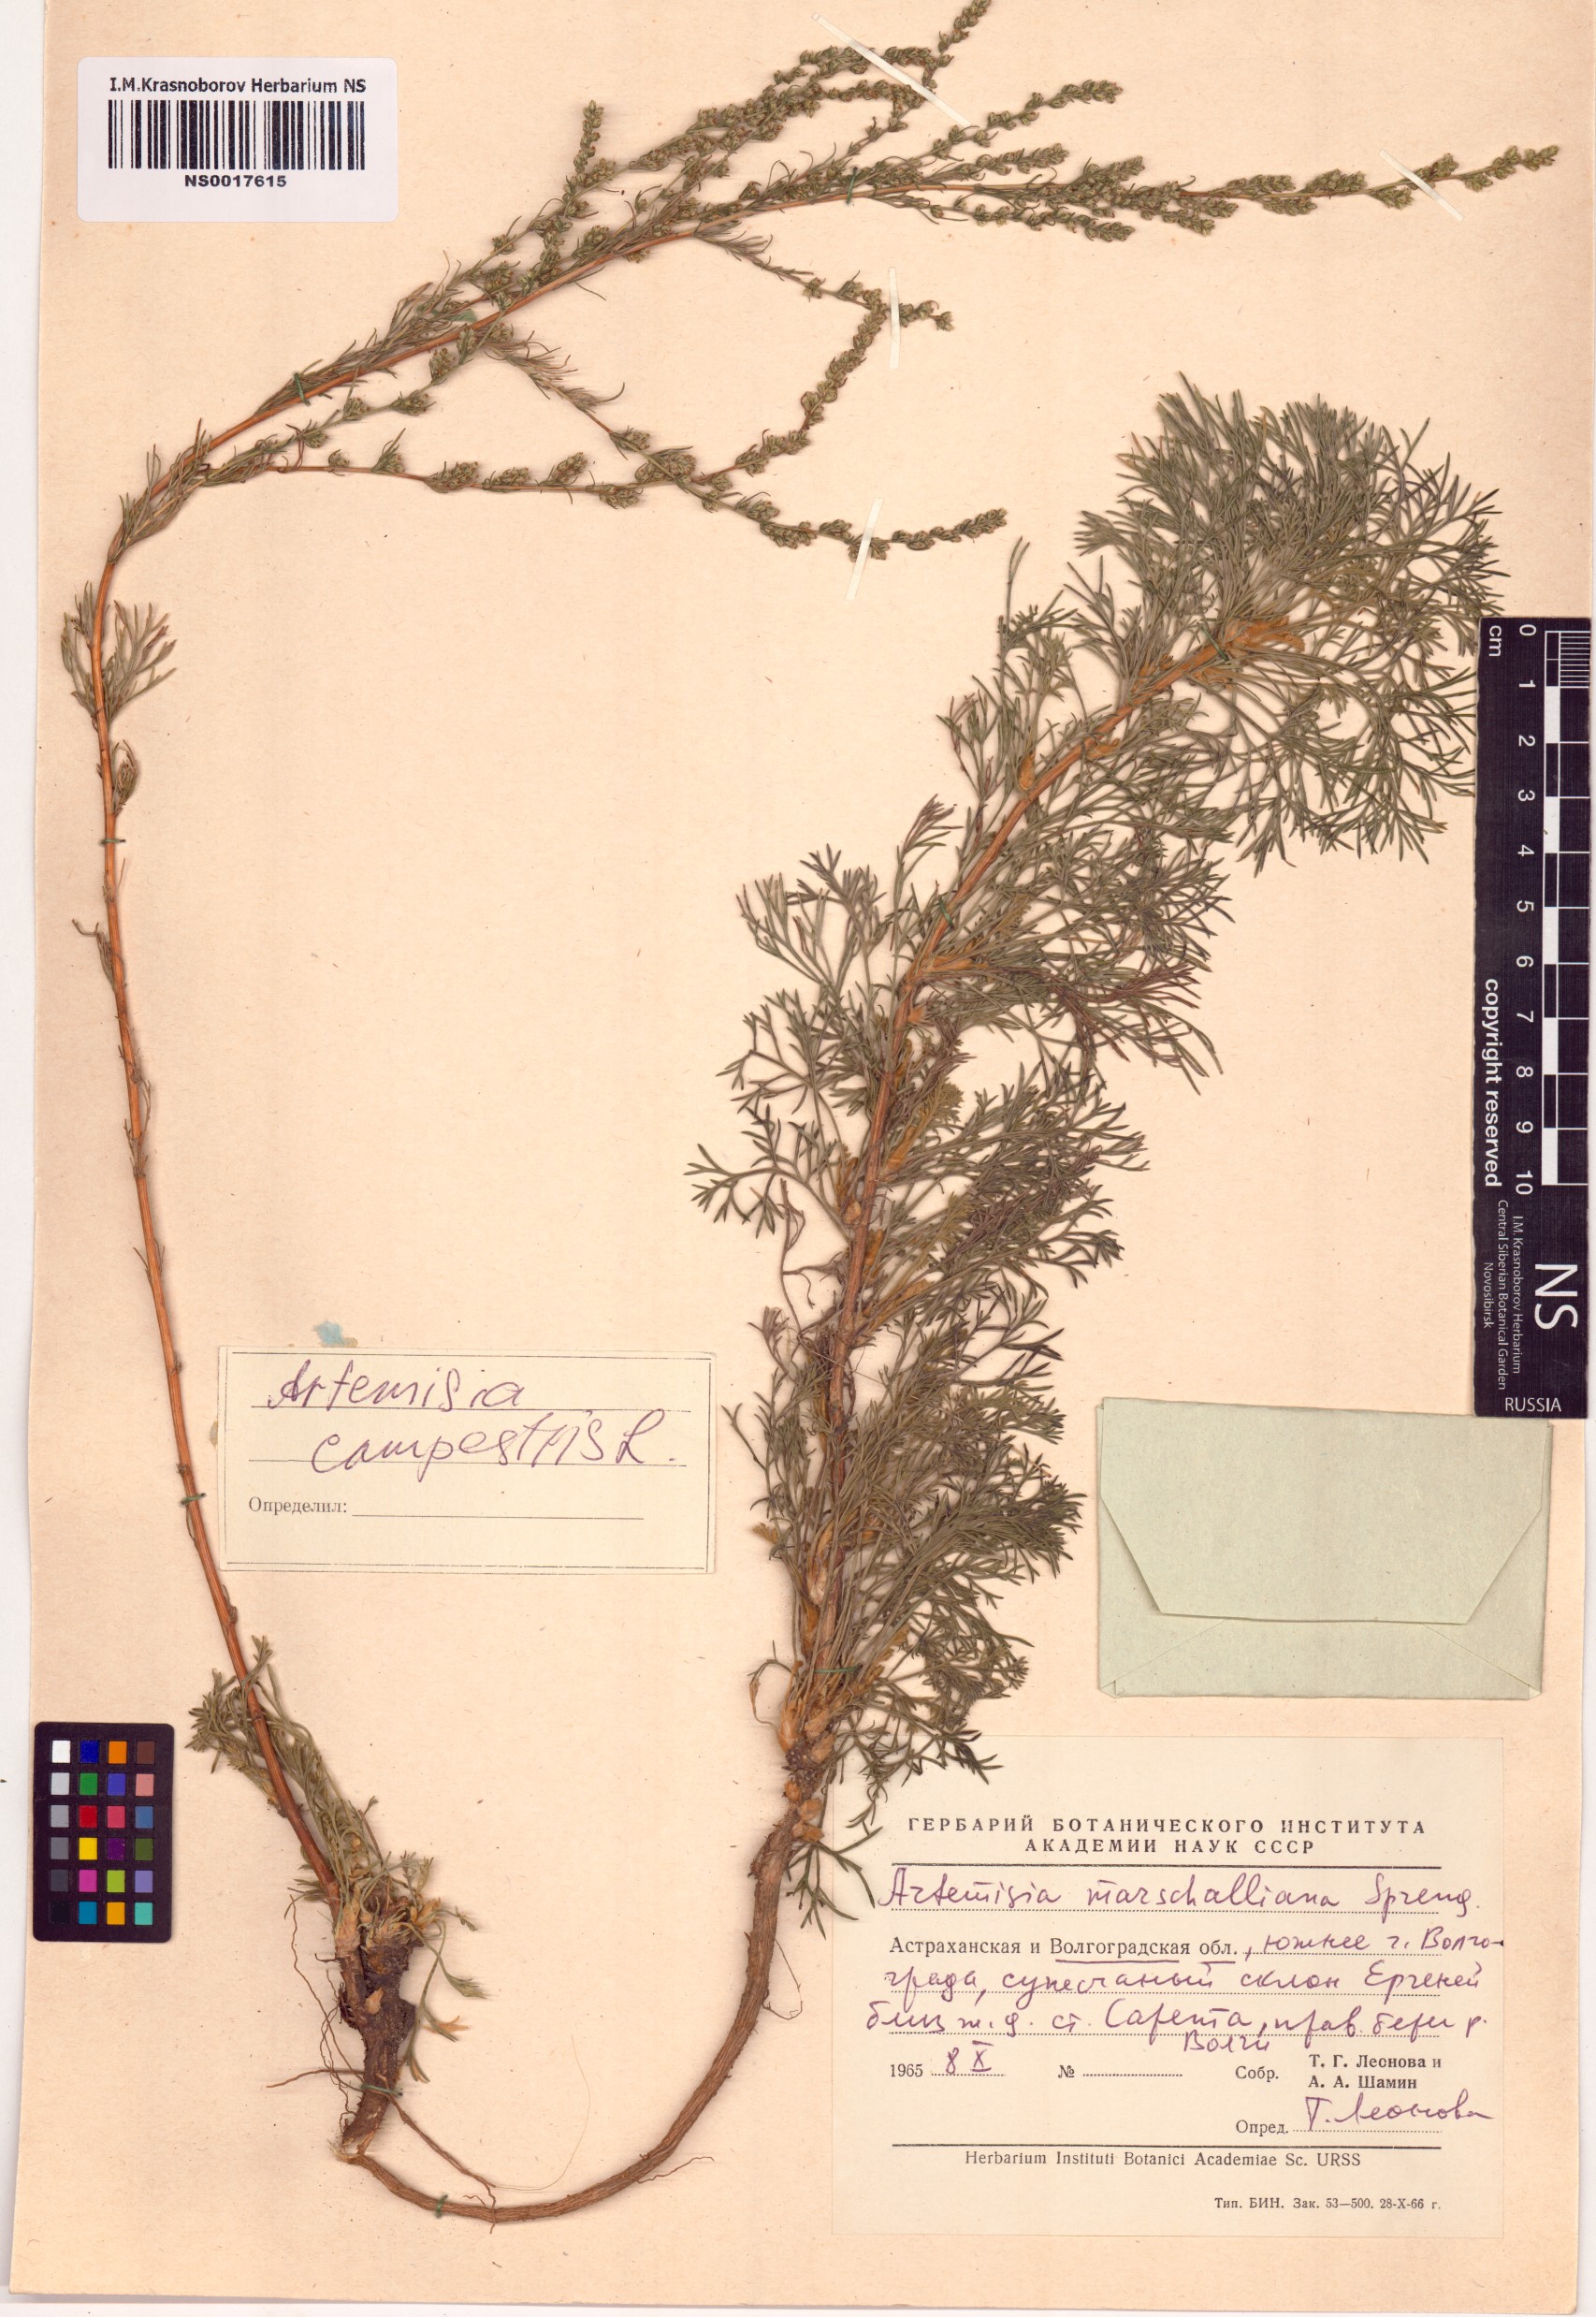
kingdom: Plantae
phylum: Tracheophyta
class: Magnoliopsida
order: Asterales
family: Asteraceae
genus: Artemisia
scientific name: Artemisia campestris
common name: Field wormwood
